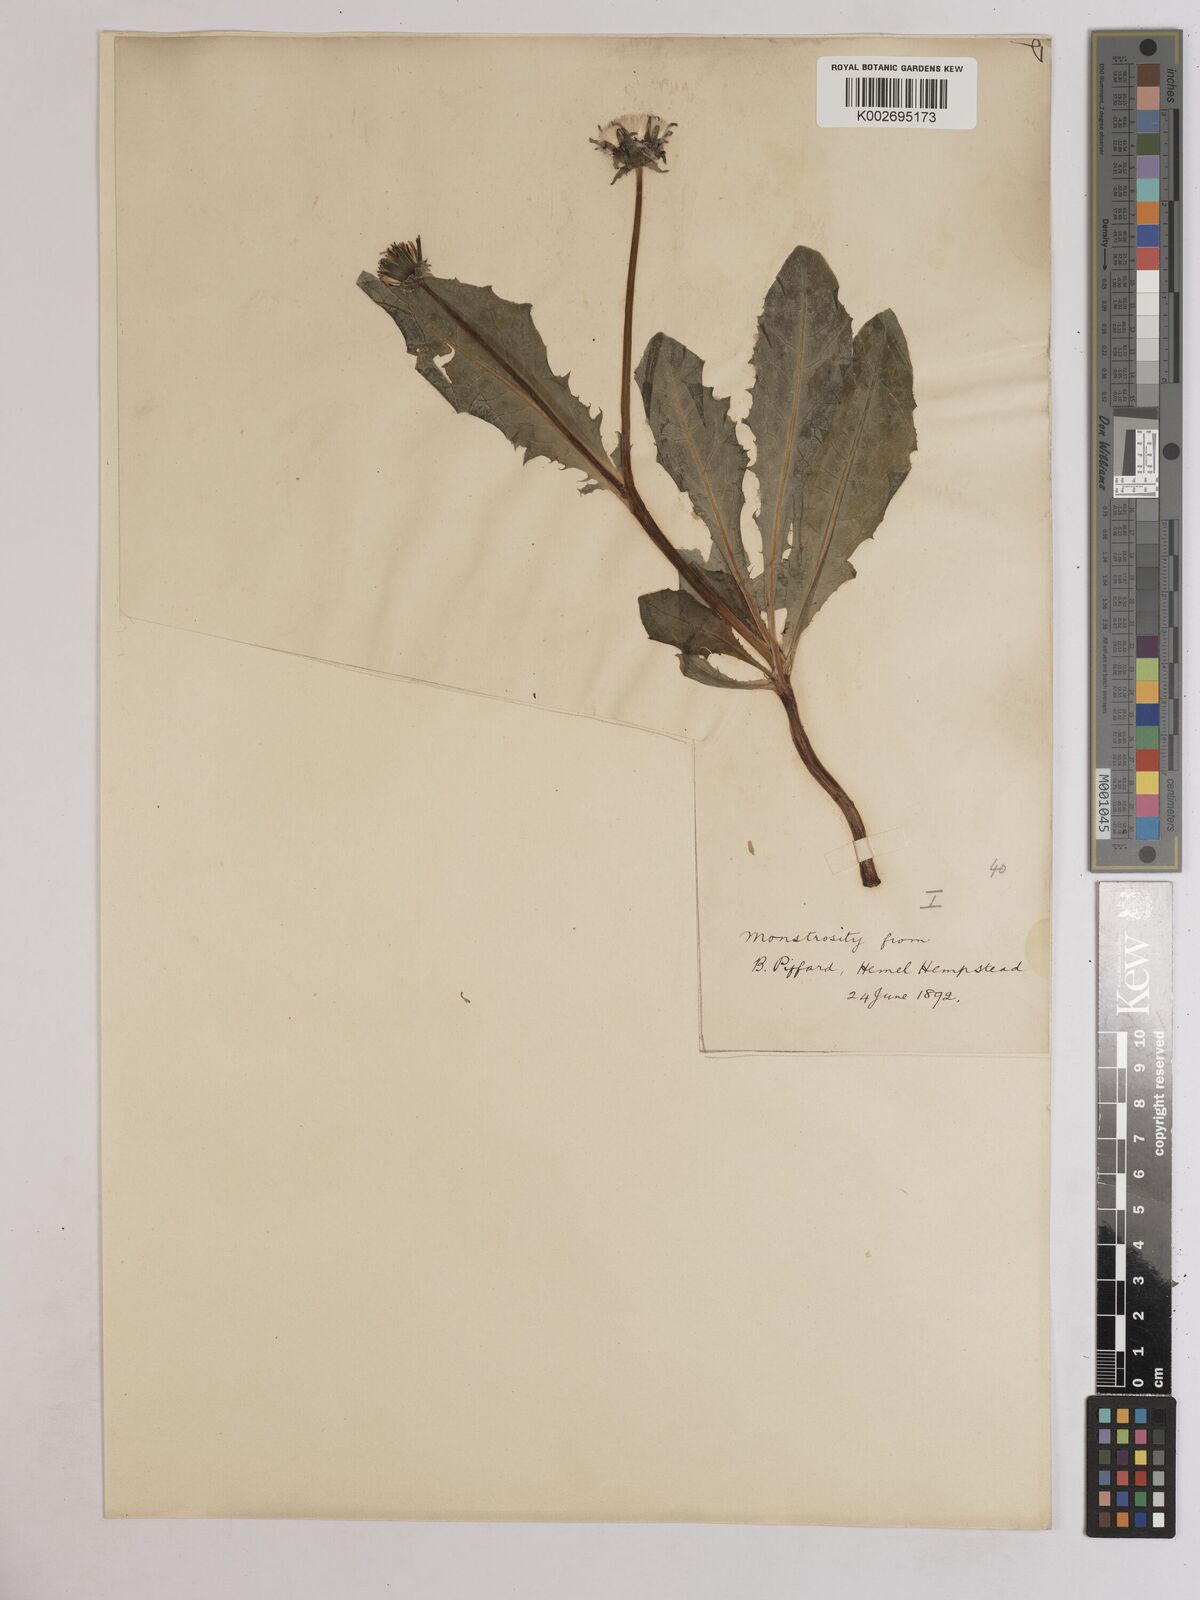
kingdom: Plantae
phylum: Tracheophyta
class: Magnoliopsida
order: Asterales
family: Asteraceae
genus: Taraxacum
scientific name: Taraxacum officinale
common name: Common dandelion
